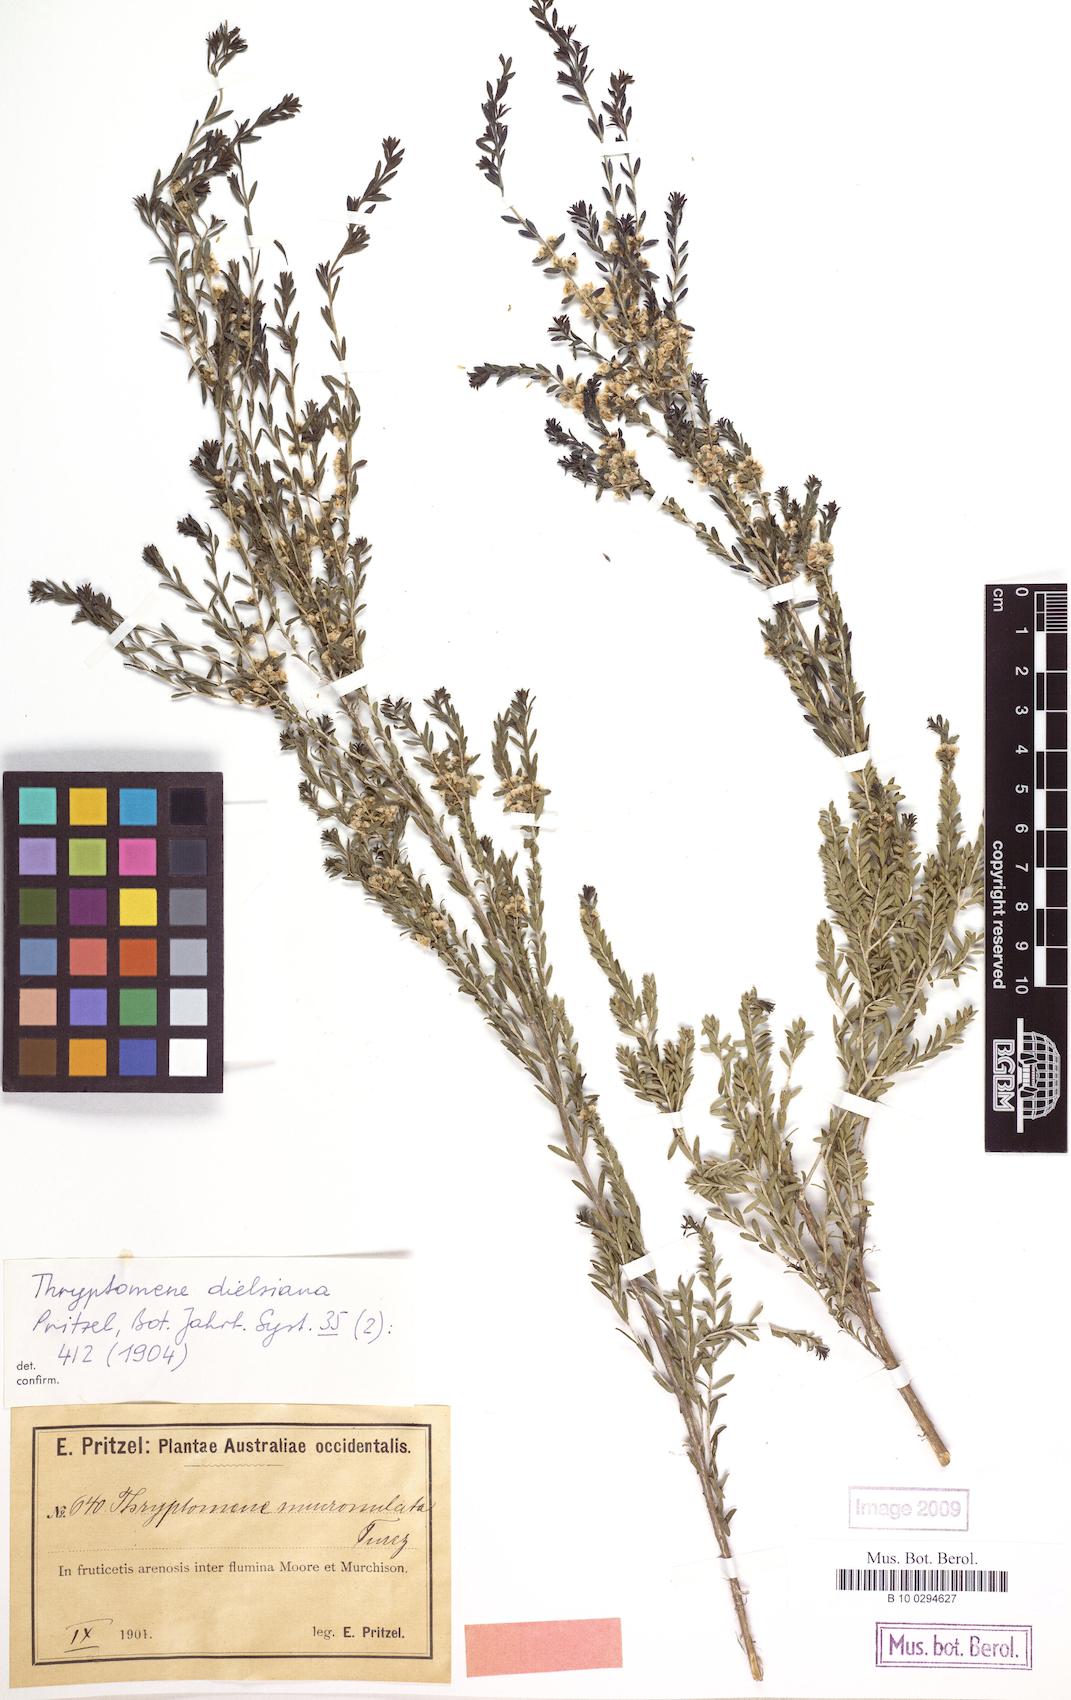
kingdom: Plantae
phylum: Tracheophyta
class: Magnoliopsida
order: Myrtales
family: Myrtaceae
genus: Thryptomene
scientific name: Thryptomene mucronulata
